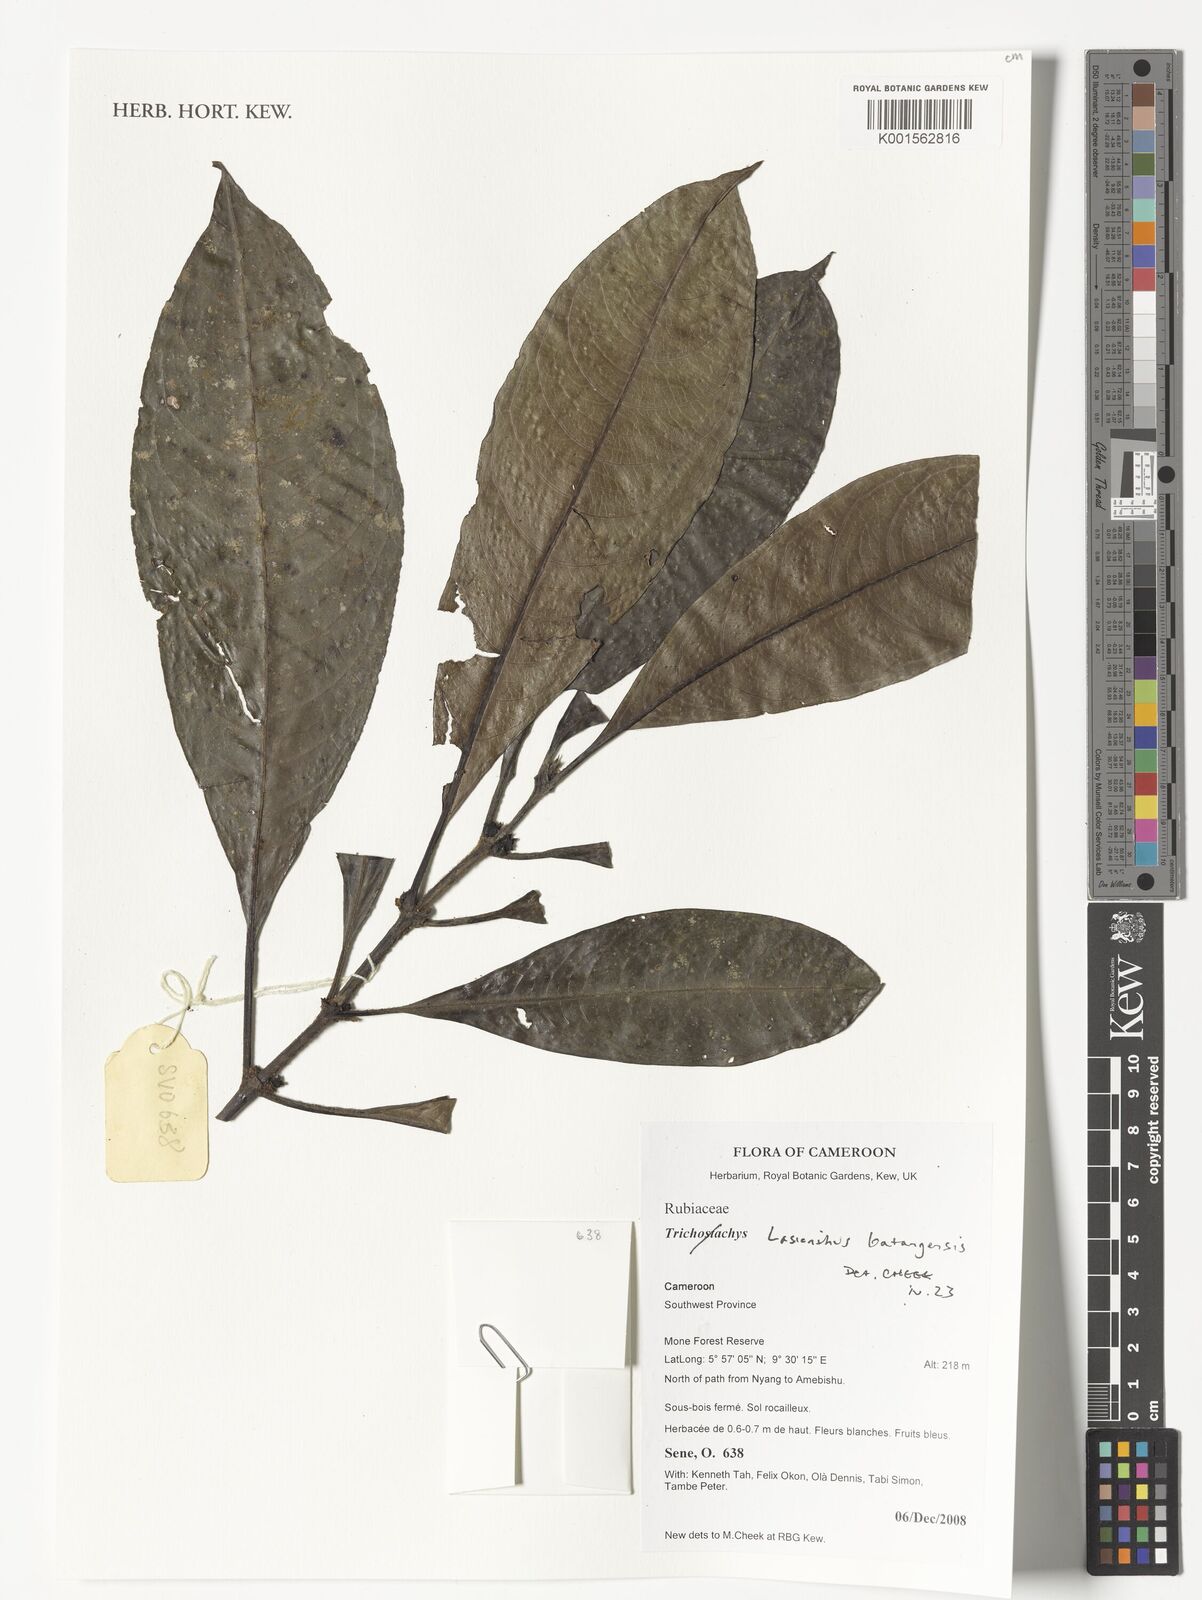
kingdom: Plantae
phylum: Tracheophyta
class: Magnoliopsida
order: Gentianales
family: Rubiaceae
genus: Lasianthus
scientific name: Lasianthus batangensis
